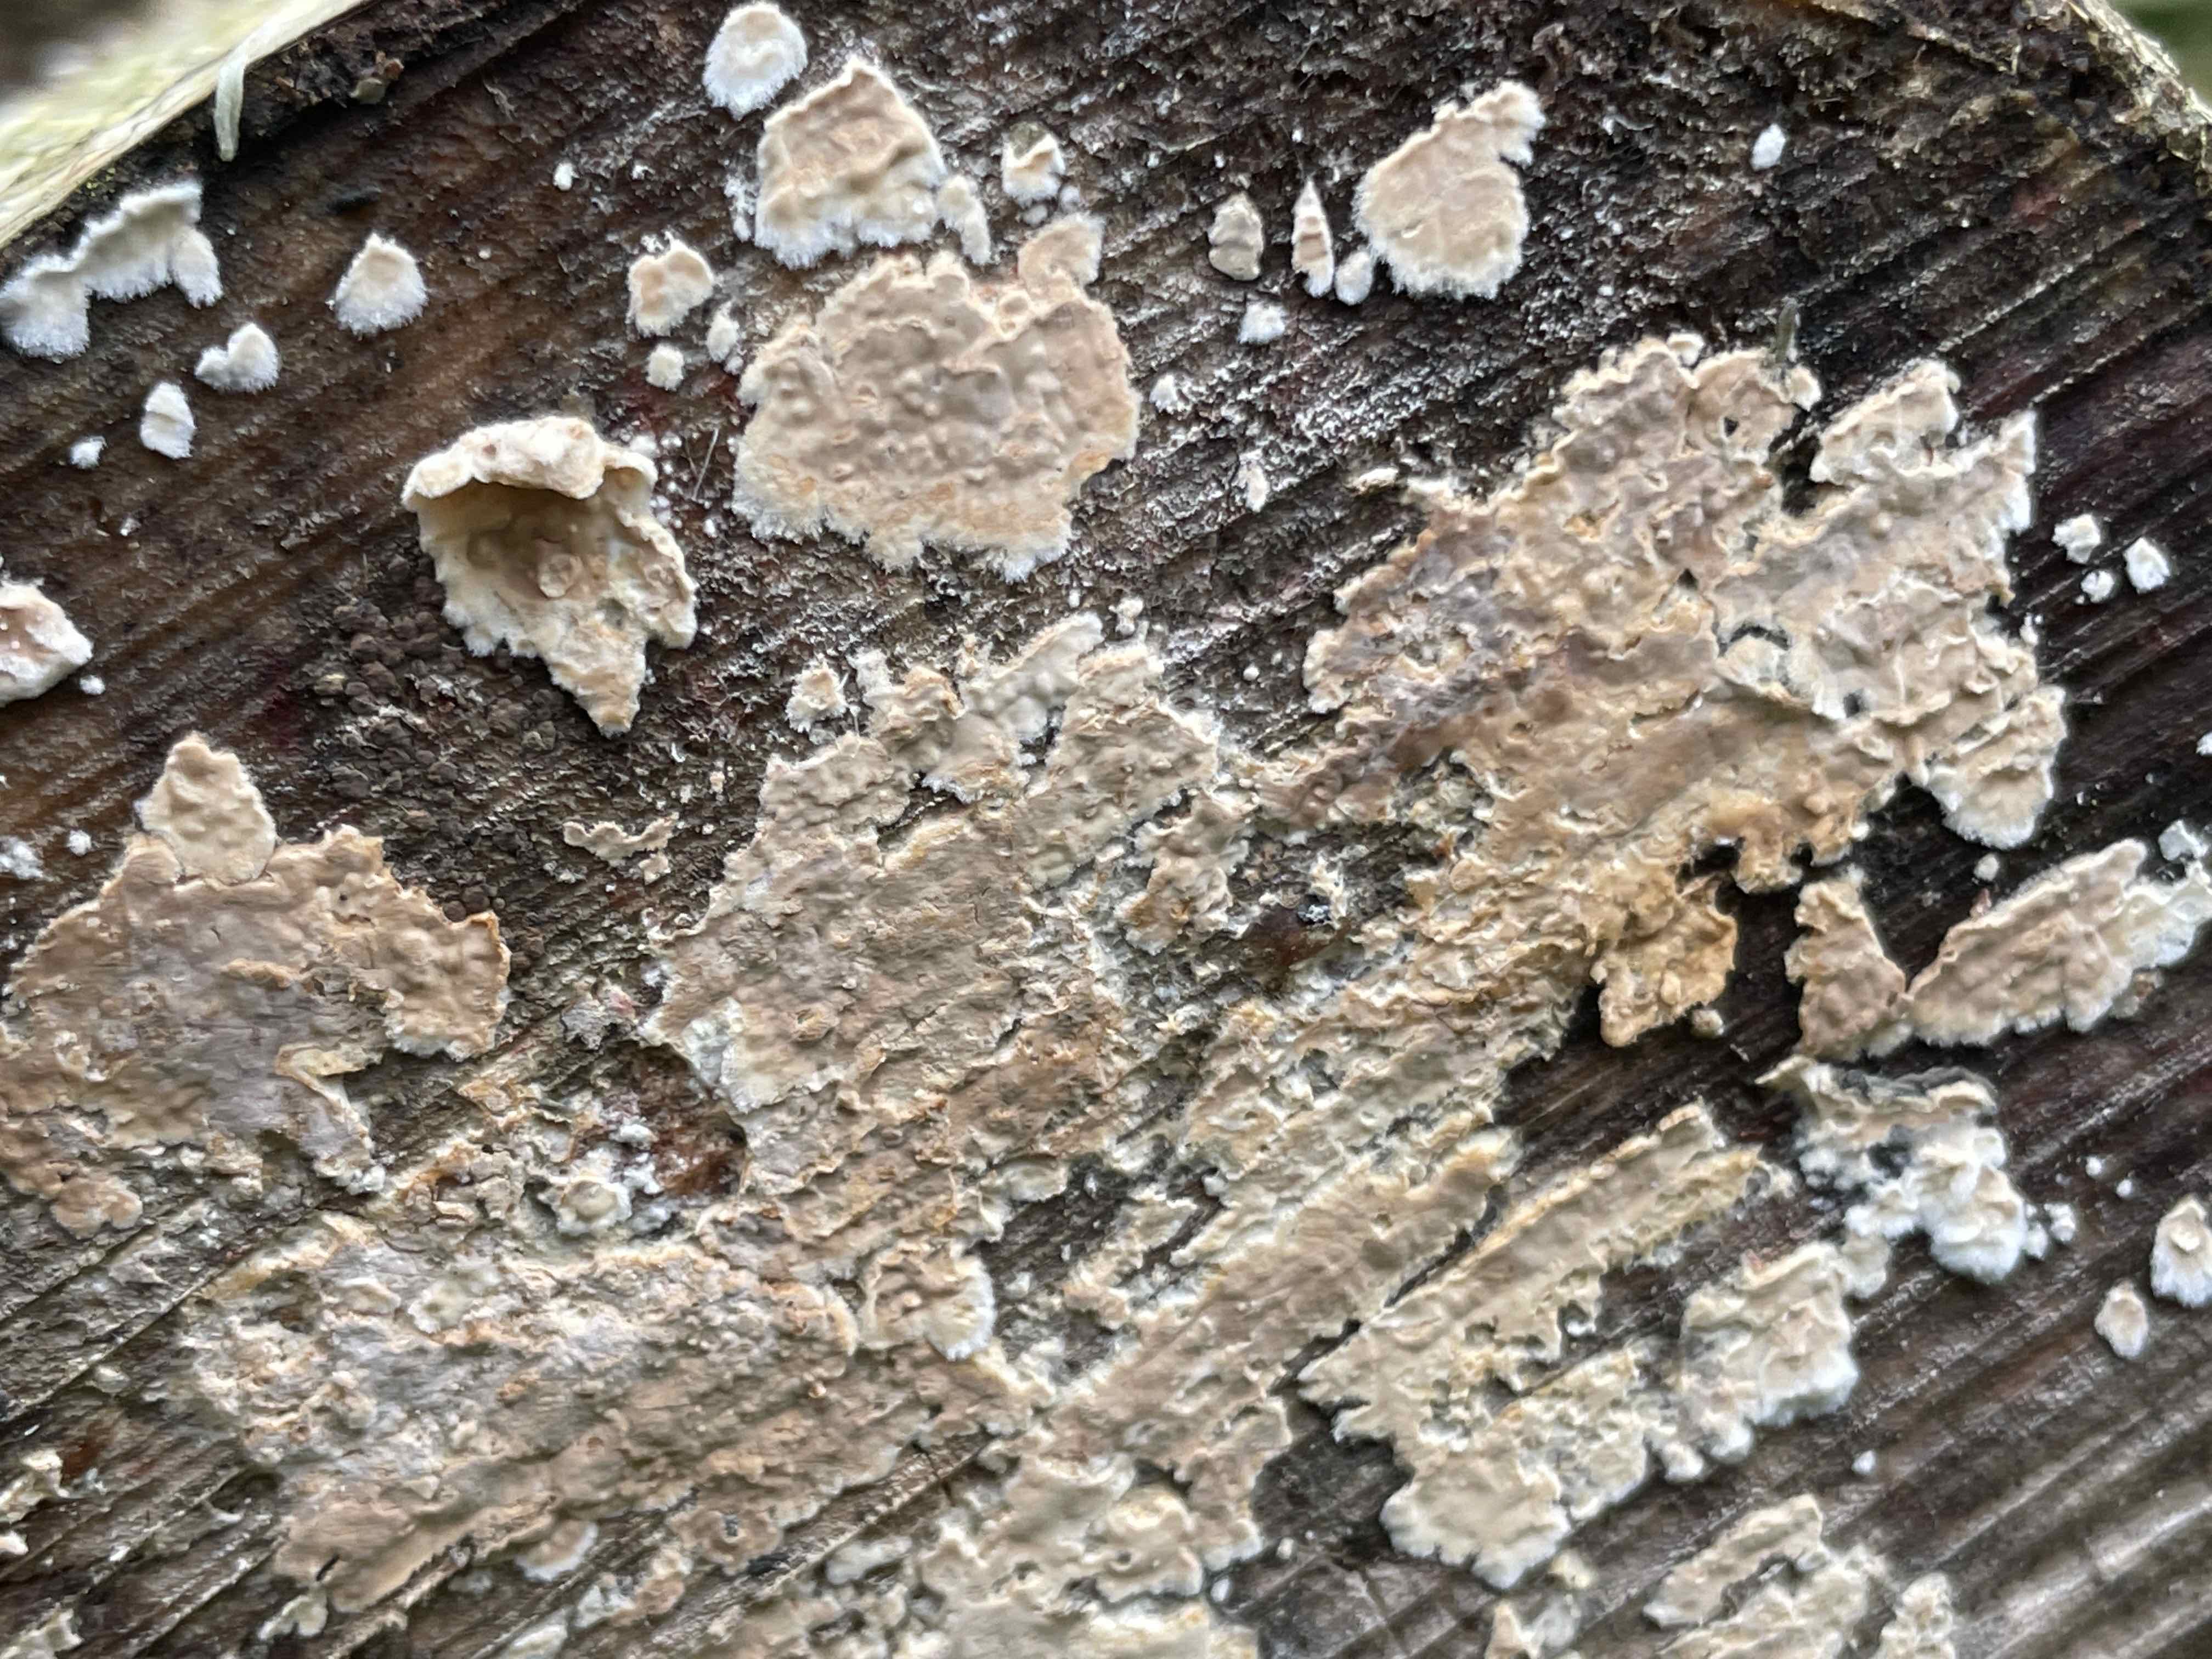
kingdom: Fungi
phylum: Basidiomycota
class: Agaricomycetes
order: Agaricales
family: Physalacriaceae
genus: Cylindrobasidium
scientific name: Cylindrobasidium evolvens
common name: sprækkehinde
